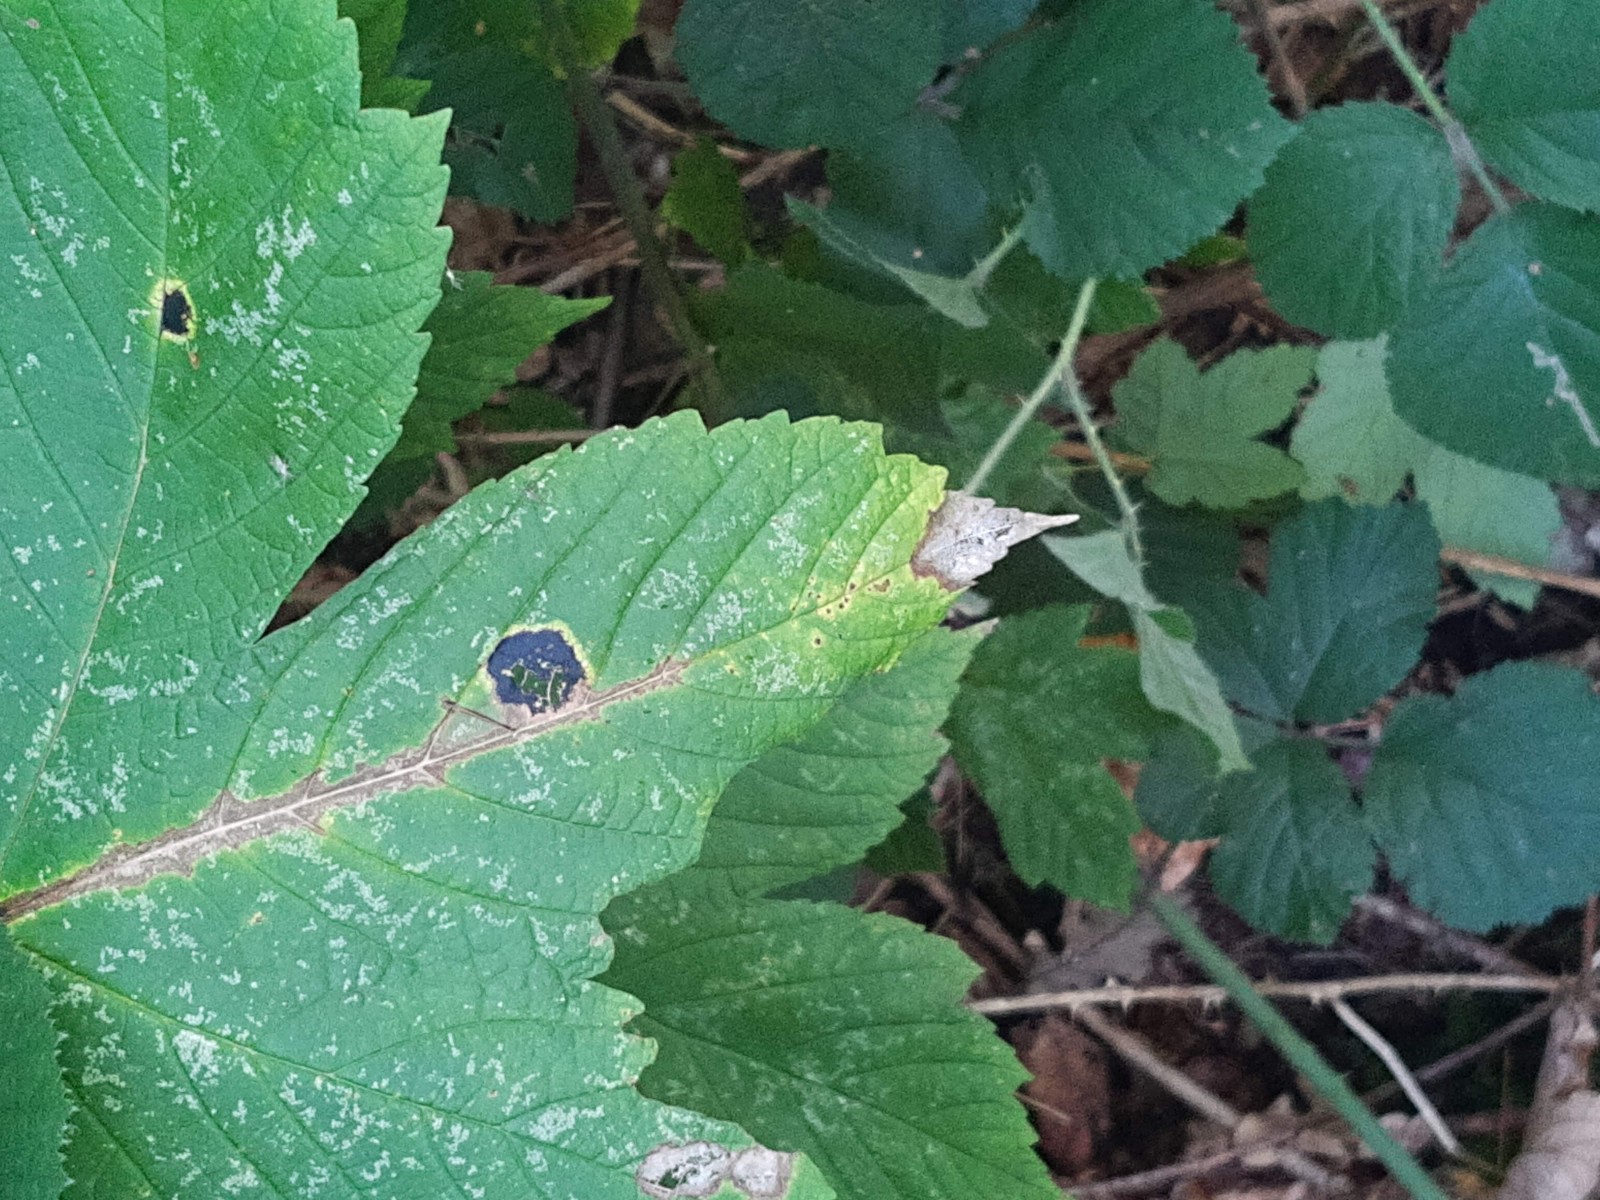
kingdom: Fungi
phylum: Ascomycota
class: Leotiomycetes
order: Rhytismatales
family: Rhytismataceae
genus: Rhytisma
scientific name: Rhytisma acerinum
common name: ahorn-rynkeplet
